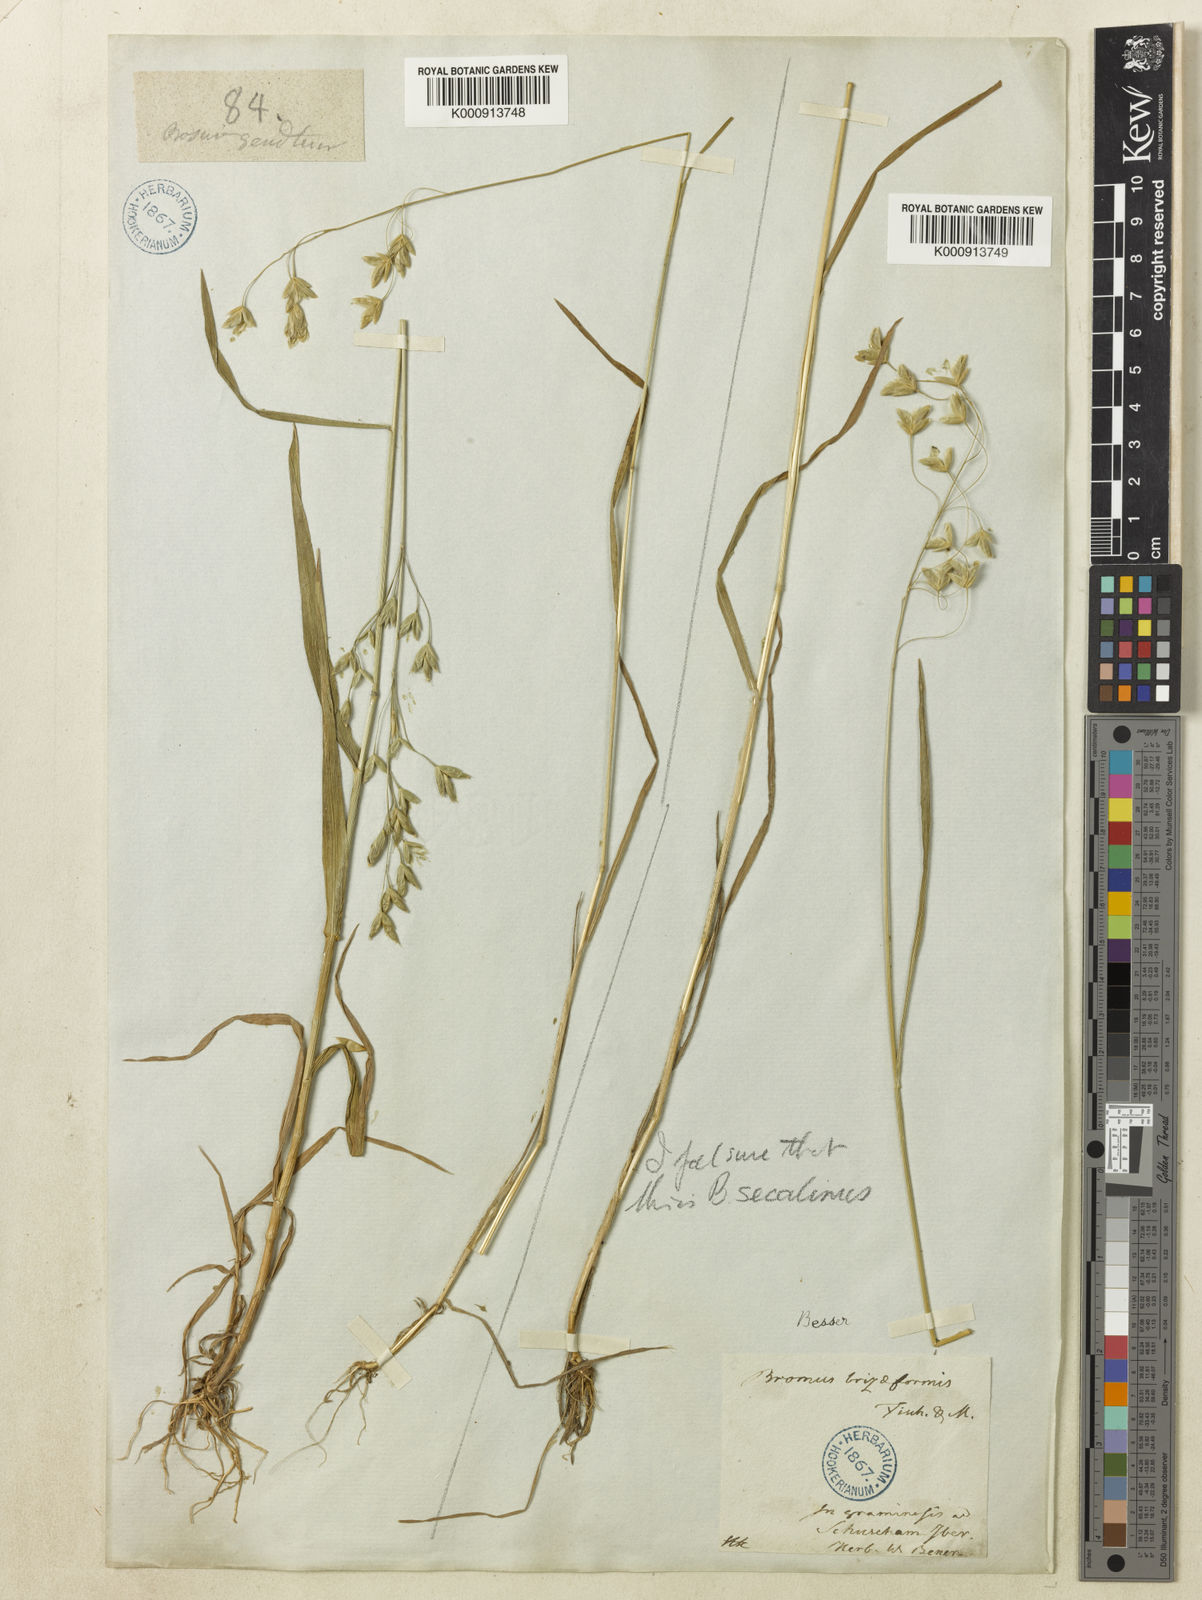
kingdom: Plantae
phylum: Tracheophyta
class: Liliopsida
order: Poales
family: Poaceae
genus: Bromus
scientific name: Bromus briziformis
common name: Rattlesnake brome
